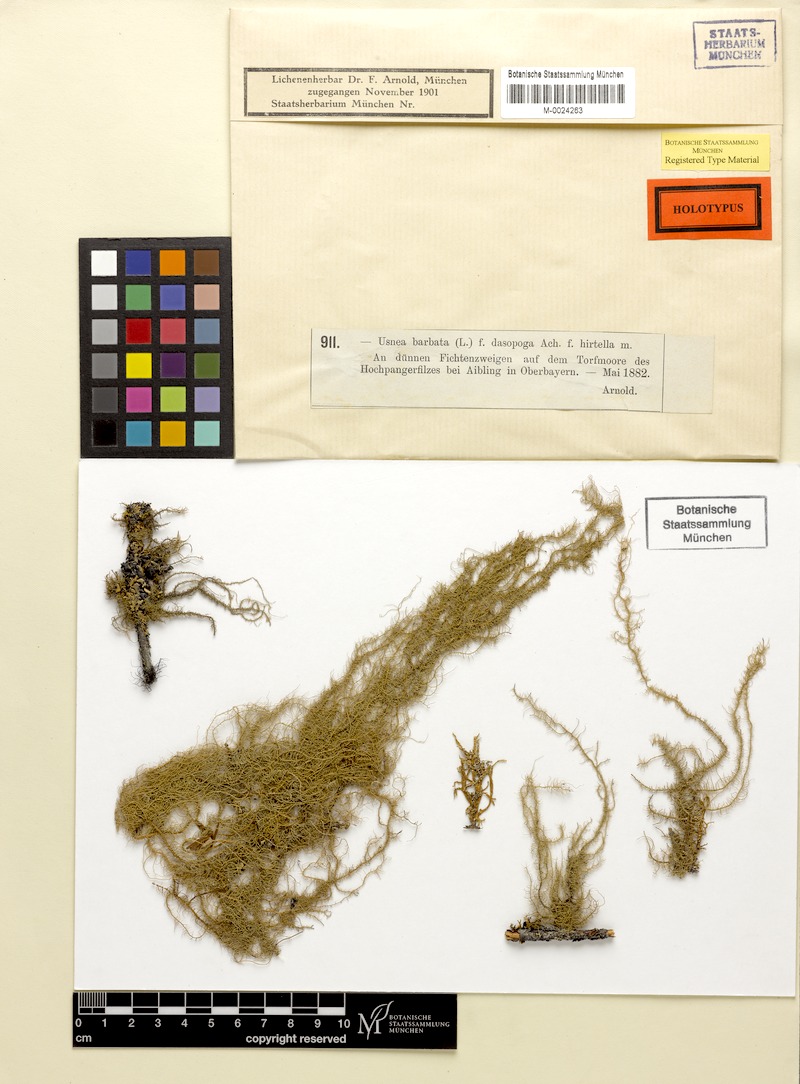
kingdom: Fungi
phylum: Ascomycota
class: Lecanoromycetes
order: Lecanorales
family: Parmeliaceae
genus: Usnea
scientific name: Usnea dasopoga
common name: Fishbone beard lichen
